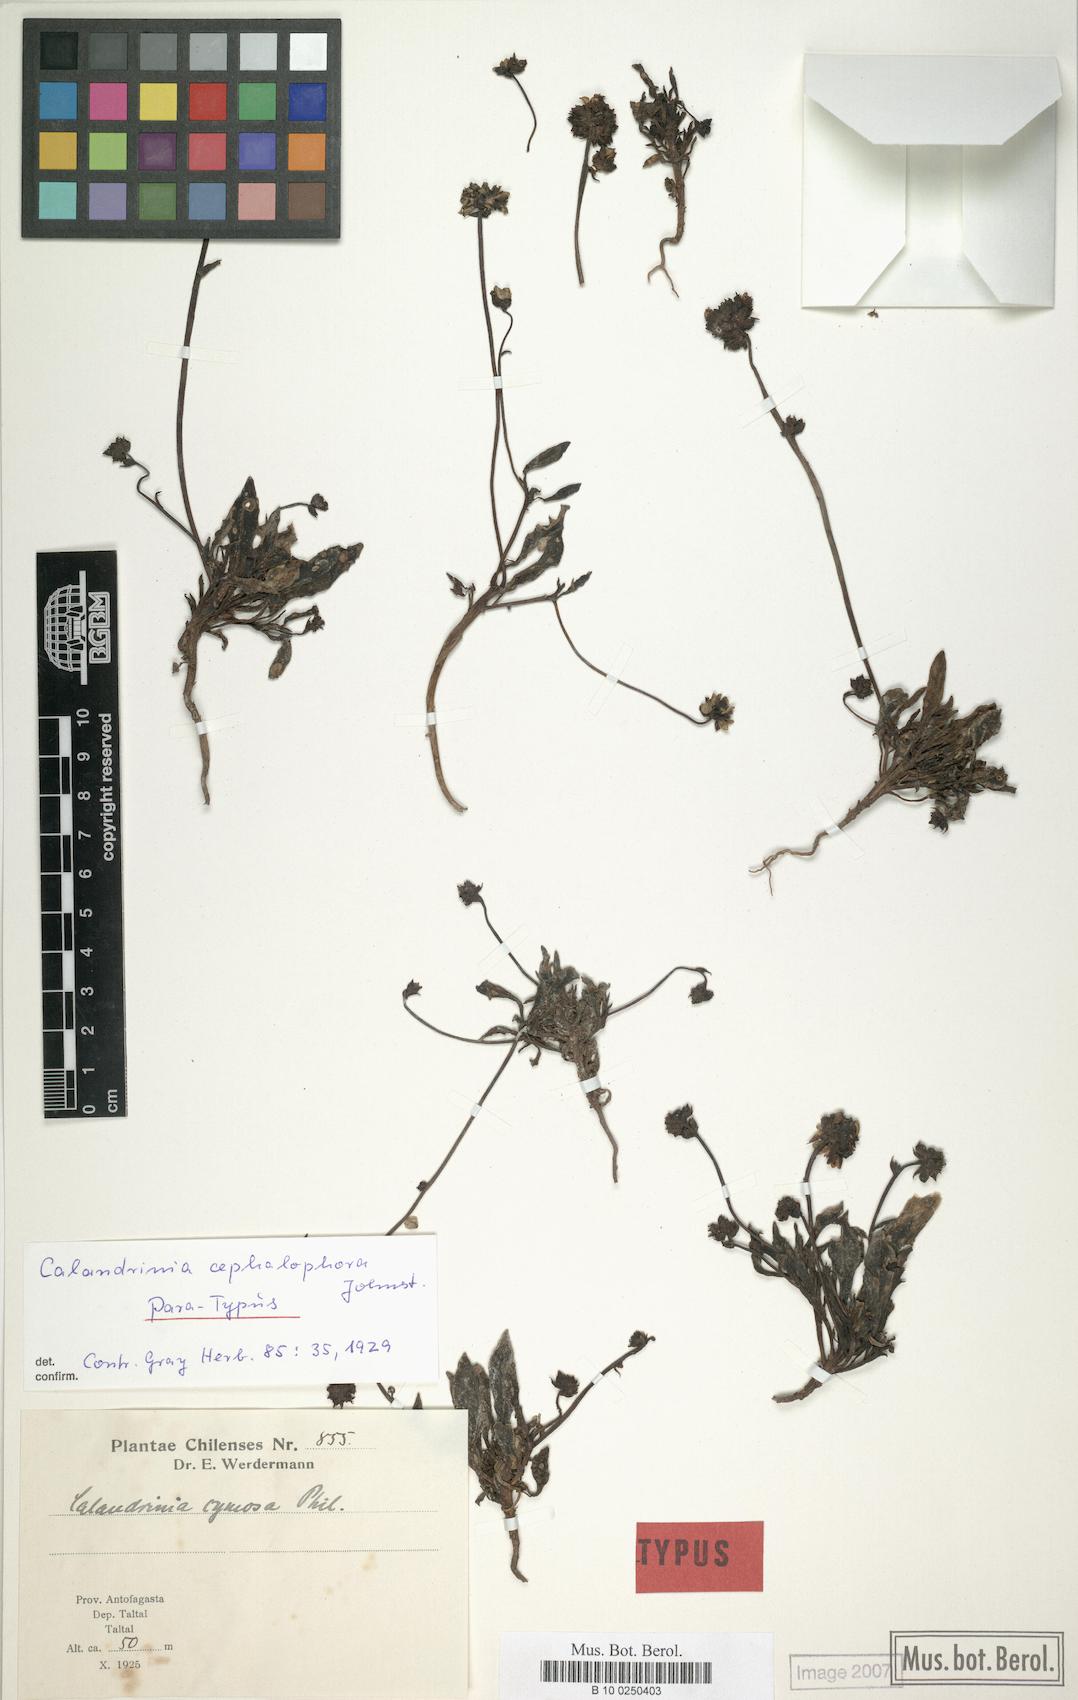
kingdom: Plantae
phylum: Tracheophyta
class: Magnoliopsida
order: Caryophyllales
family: Montiaceae
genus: Cistanthe
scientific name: Cistanthe cephalophora
